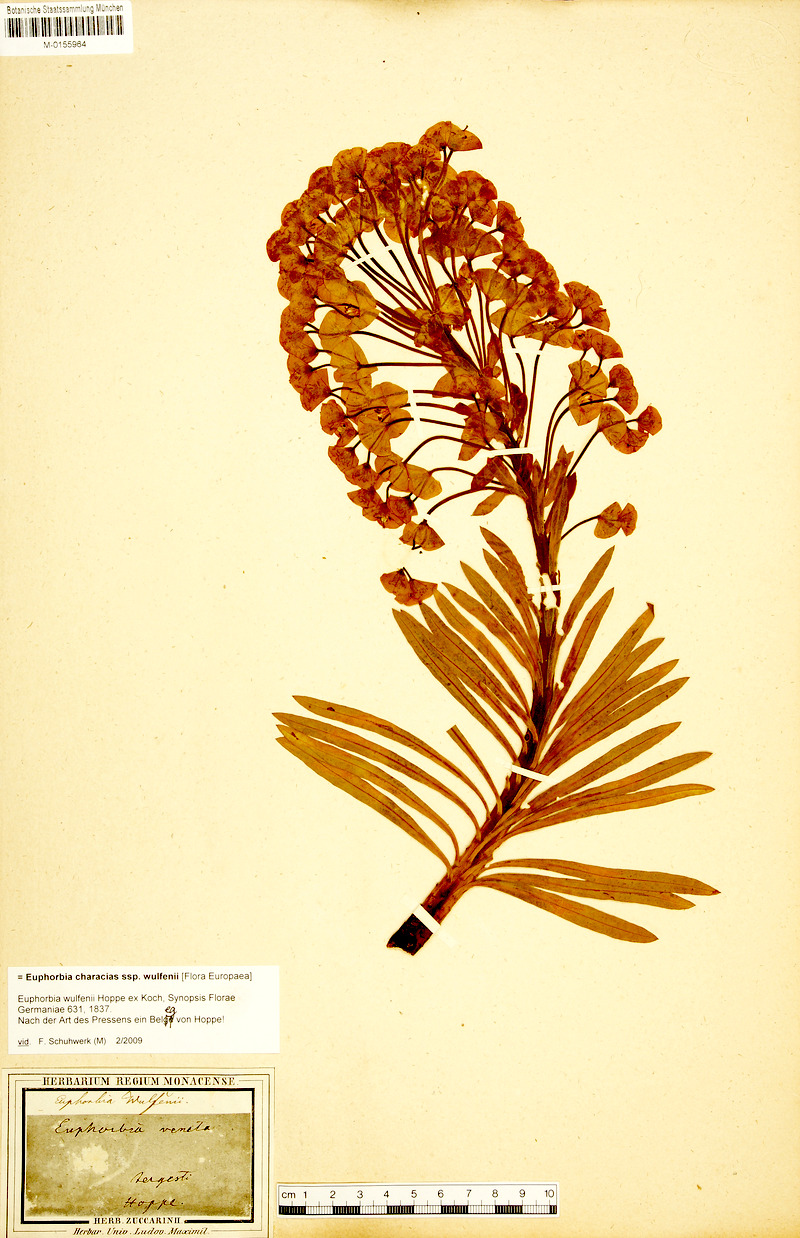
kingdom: Plantae
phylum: Tracheophyta
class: Magnoliopsida
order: Malpighiales
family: Euphorbiaceae
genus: Euphorbia
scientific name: Euphorbia characias
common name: Mediterranean spurge
